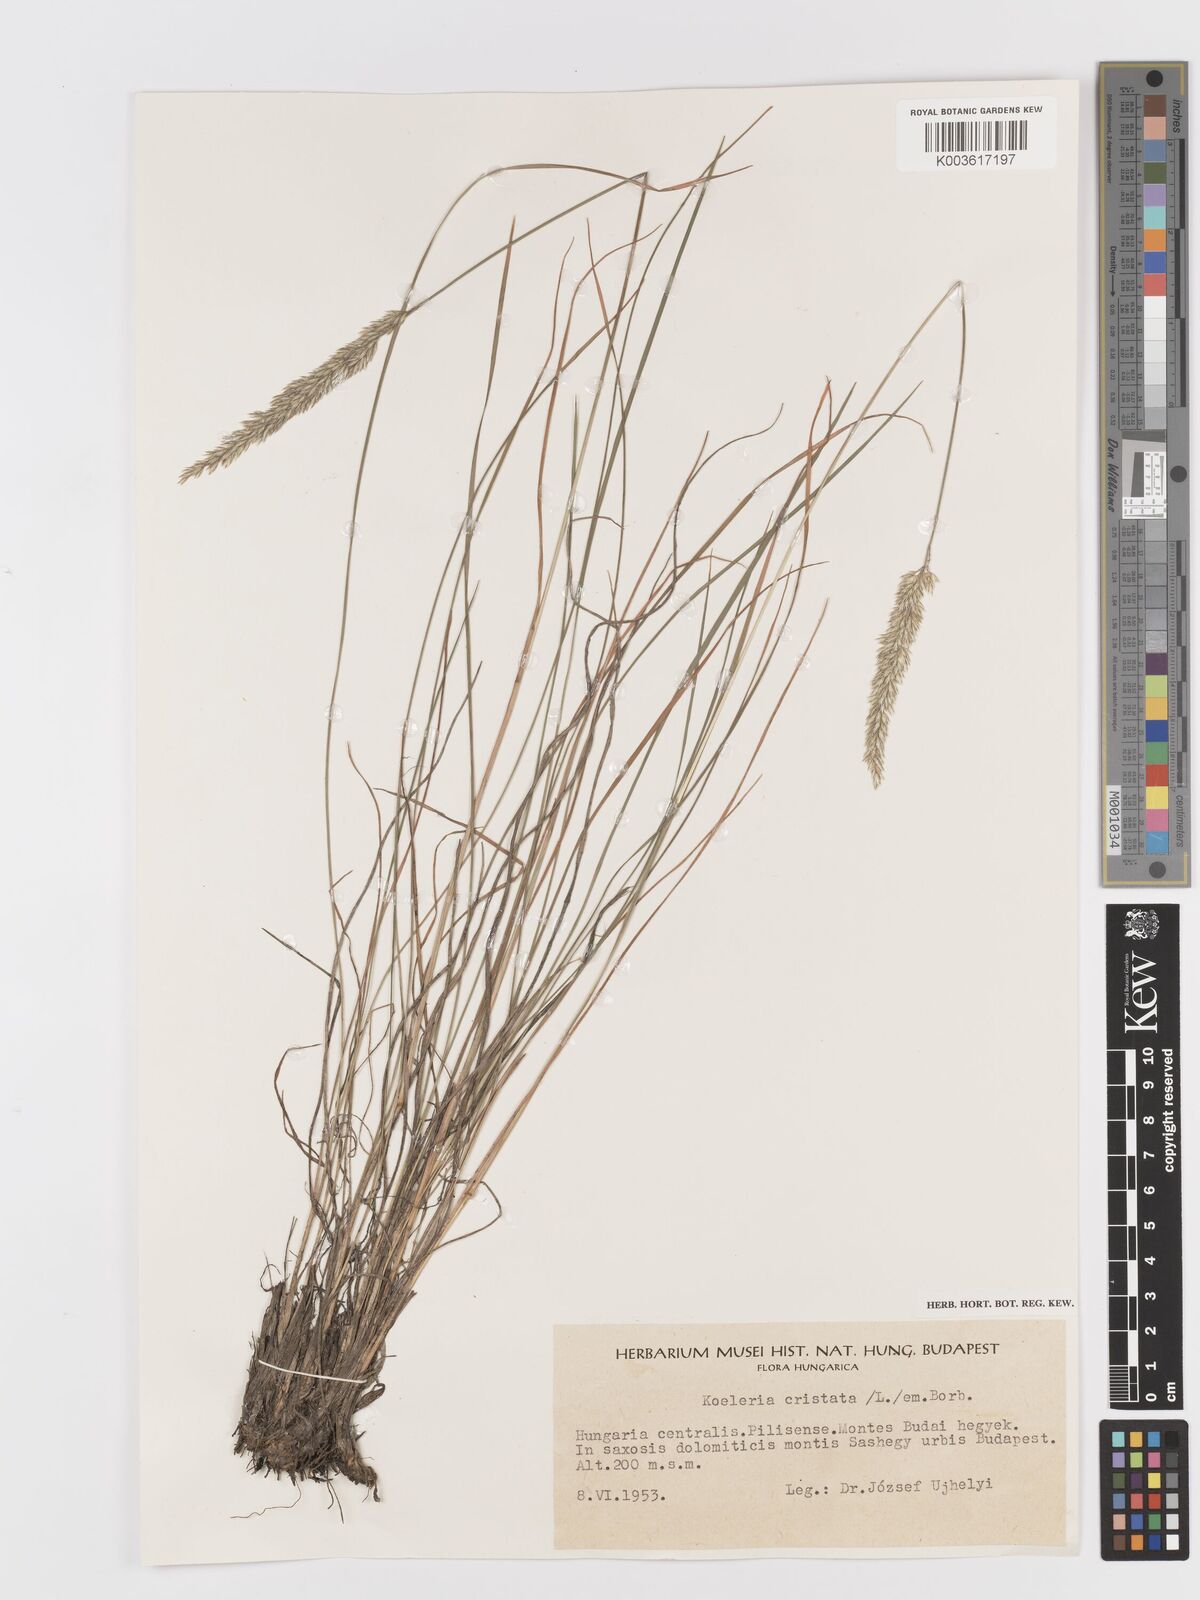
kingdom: Plantae
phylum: Tracheophyta
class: Liliopsida
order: Poales
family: Poaceae
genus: Koeleria
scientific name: Koeleria
